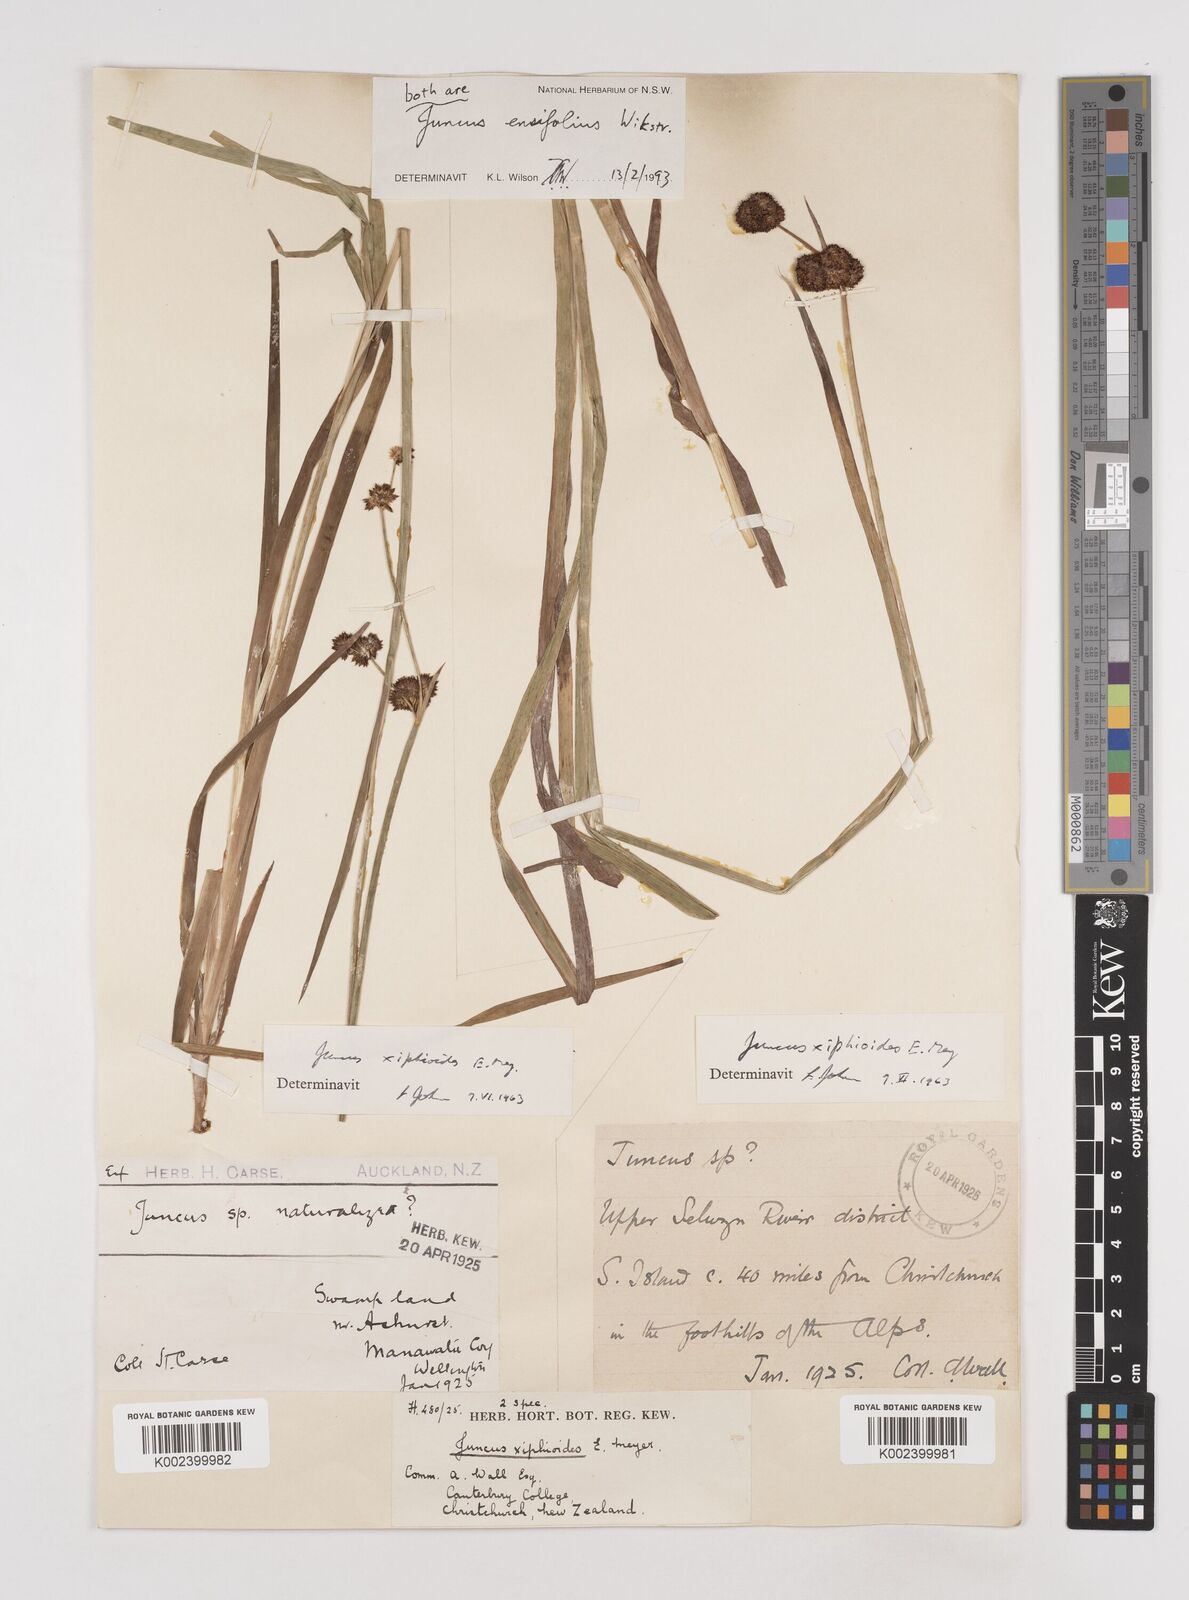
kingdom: Plantae
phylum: Tracheophyta
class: Liliopsida
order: Poales
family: Juncaceae
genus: Juncus
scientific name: Juncus ensifolius
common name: Sword-leaved rush
